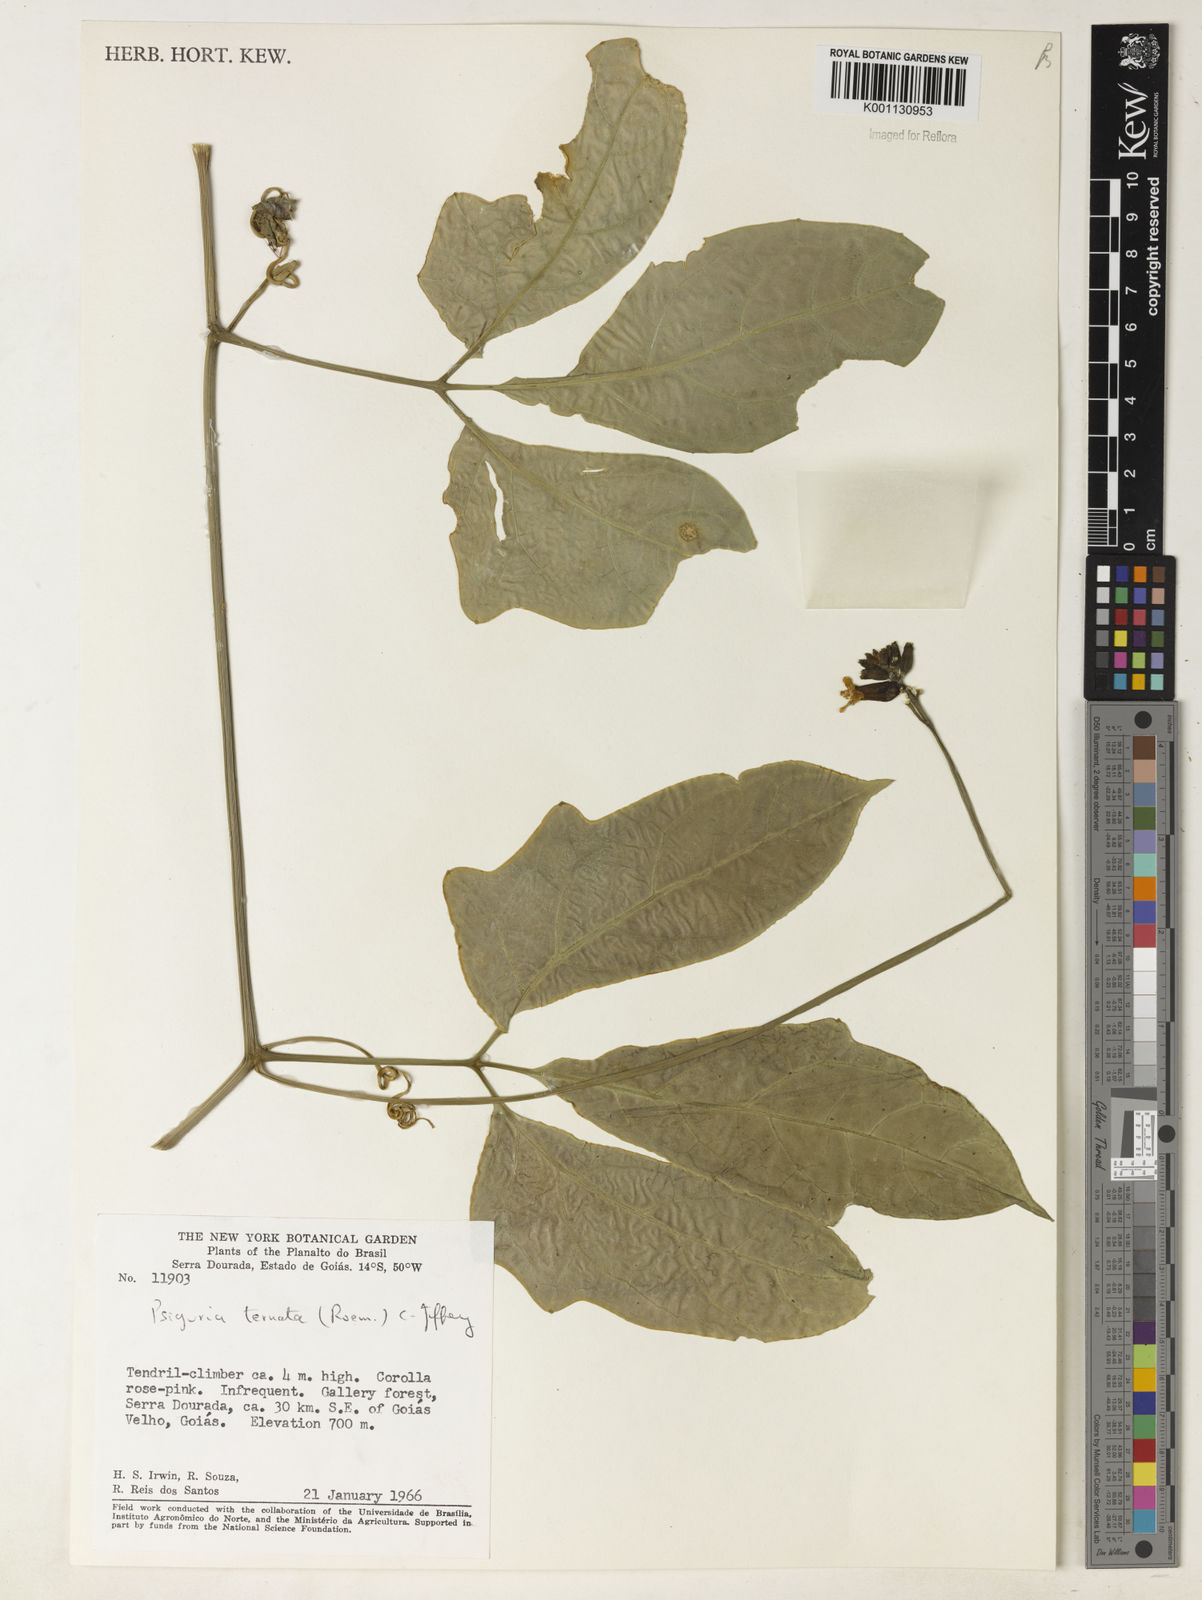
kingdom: Plantae
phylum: Tracheophyta
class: Magnoliopsida
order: Cucurbitales
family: Cucurbitaceae
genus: Psiguria
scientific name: Psiguria ternata
